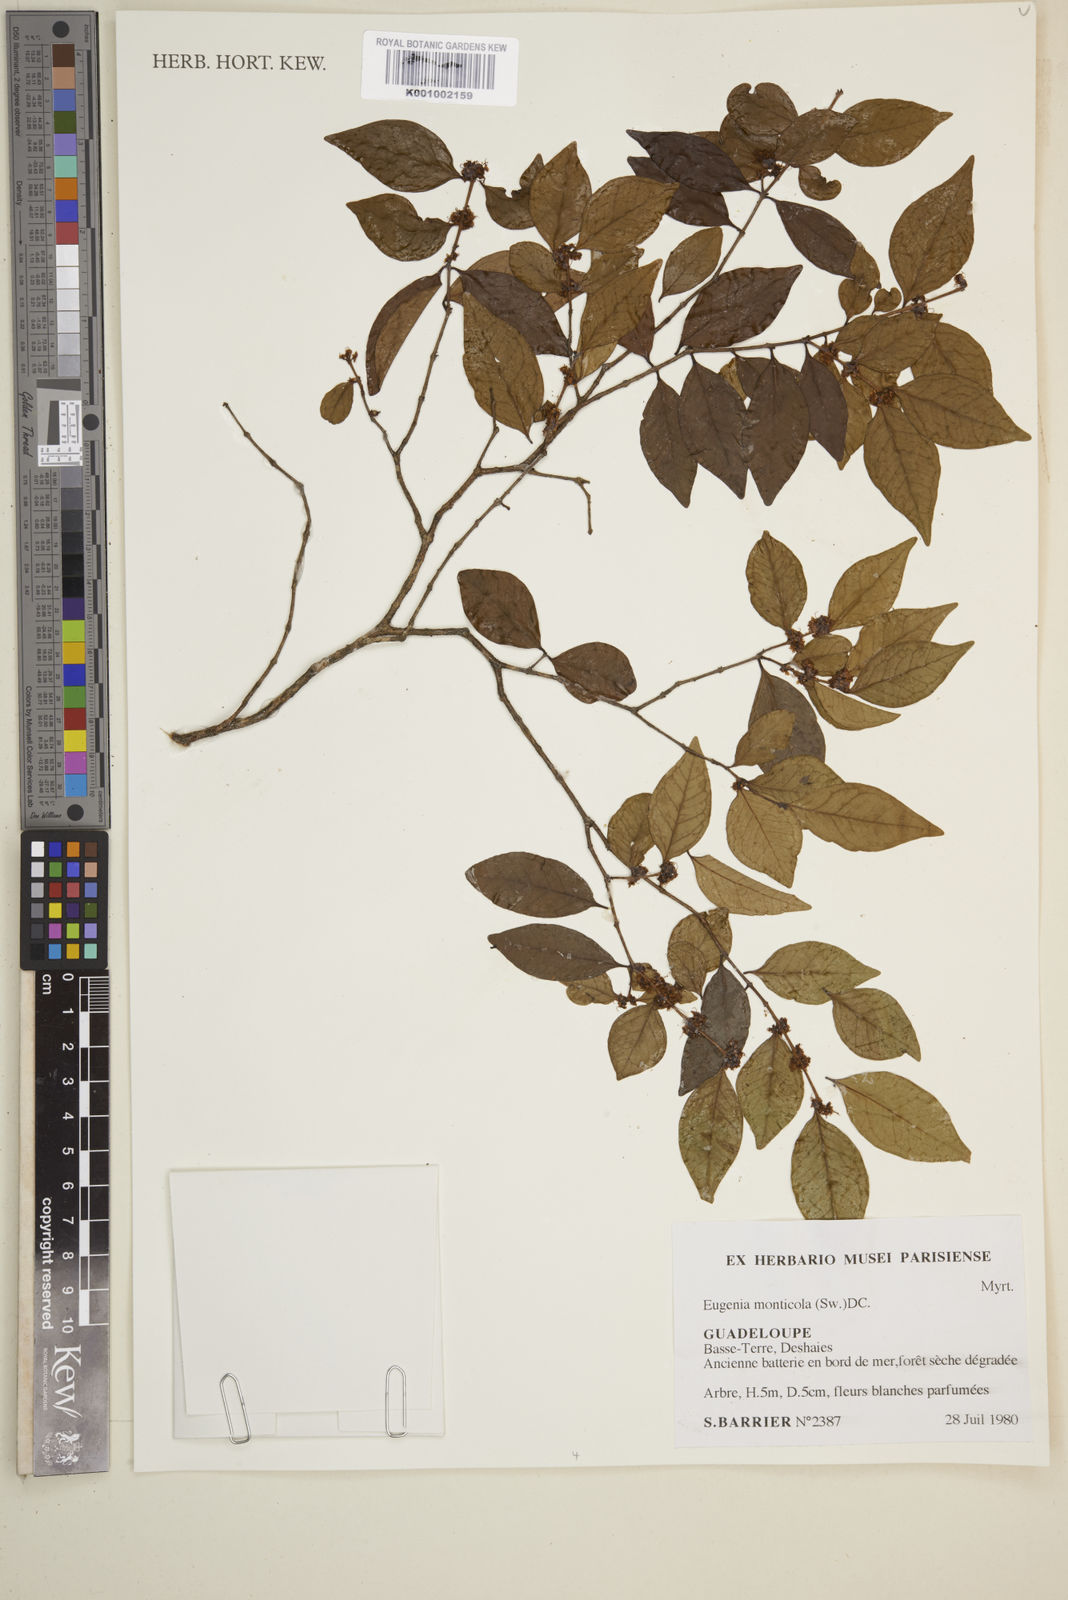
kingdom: Plantae
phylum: Tracheophyta
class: Magnoliopsida
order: Myrtales
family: Myrtaceae
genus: Eugenia
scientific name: Eugenia monticola
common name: Birds berry
